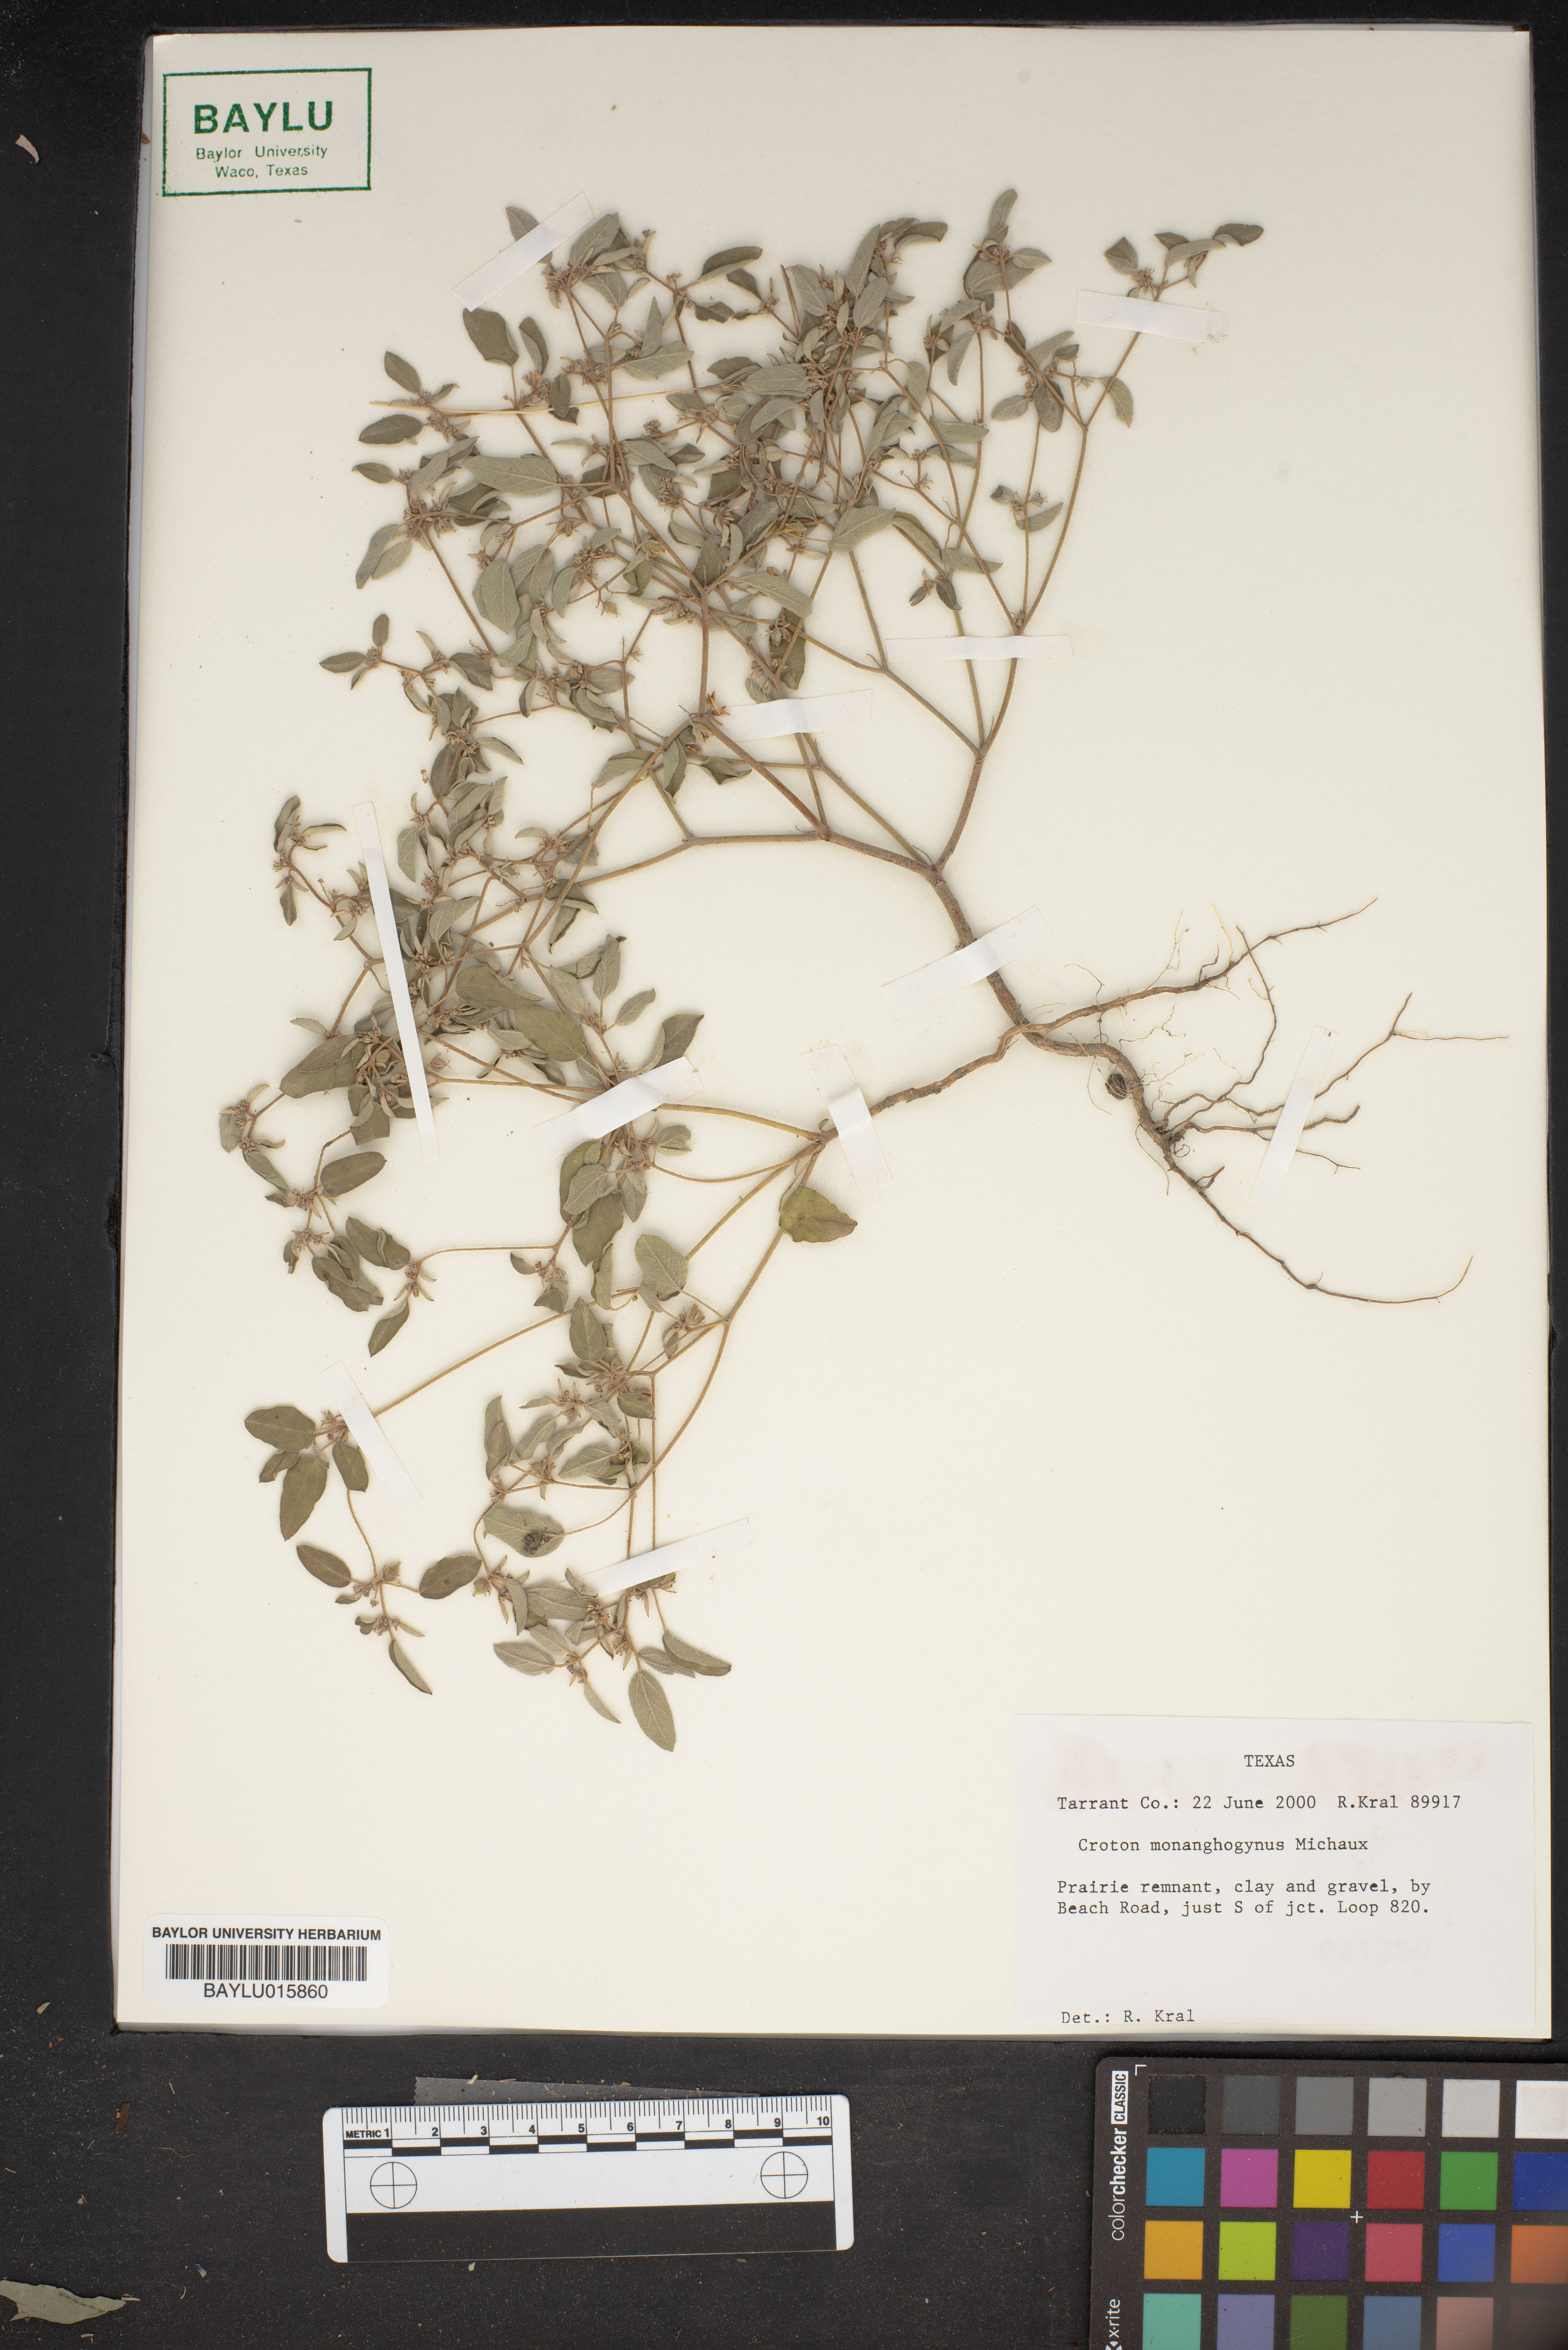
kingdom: Plantae
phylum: Tracheophyta
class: Magnoliopsida
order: Malpighiales
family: Euphorbiaceae
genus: Croton
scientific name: Croton monanthogynus
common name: One-seed croton
